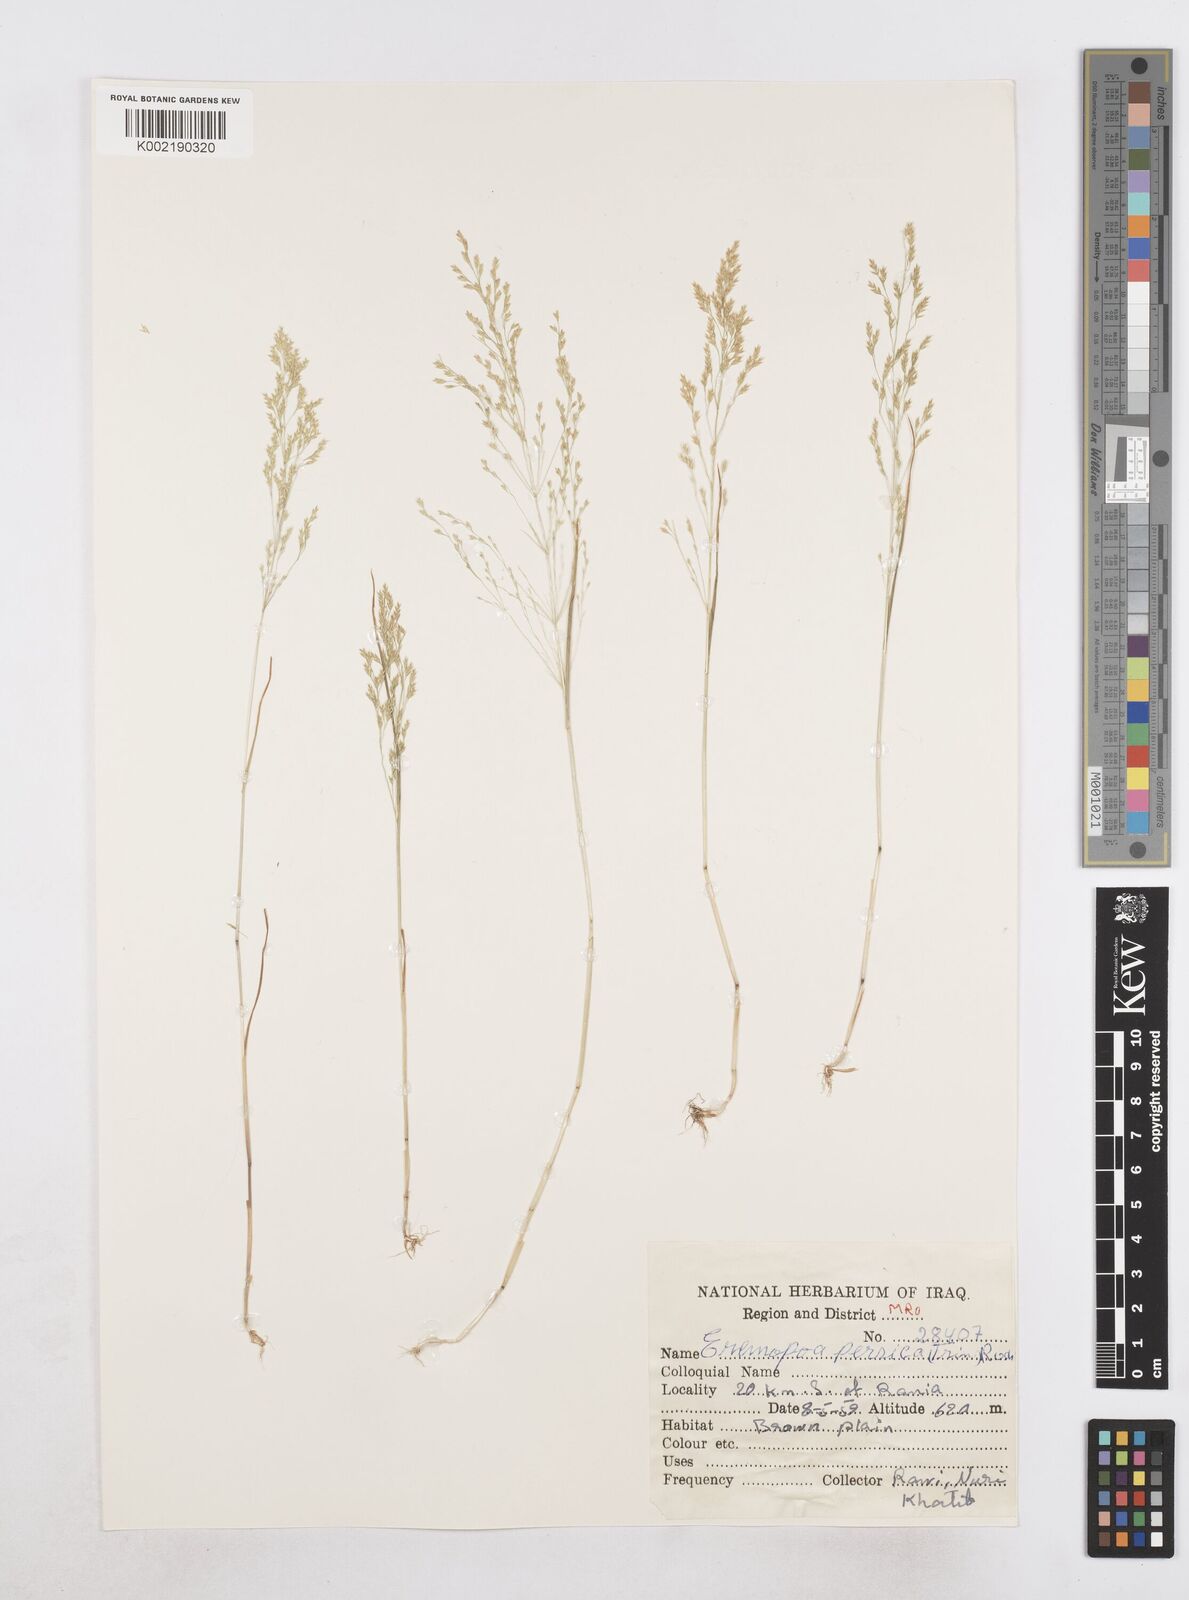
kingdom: Plantae
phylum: Tracheophyta
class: Liliopsida
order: Poales
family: Poaceae
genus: Poa
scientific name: Poa persica
